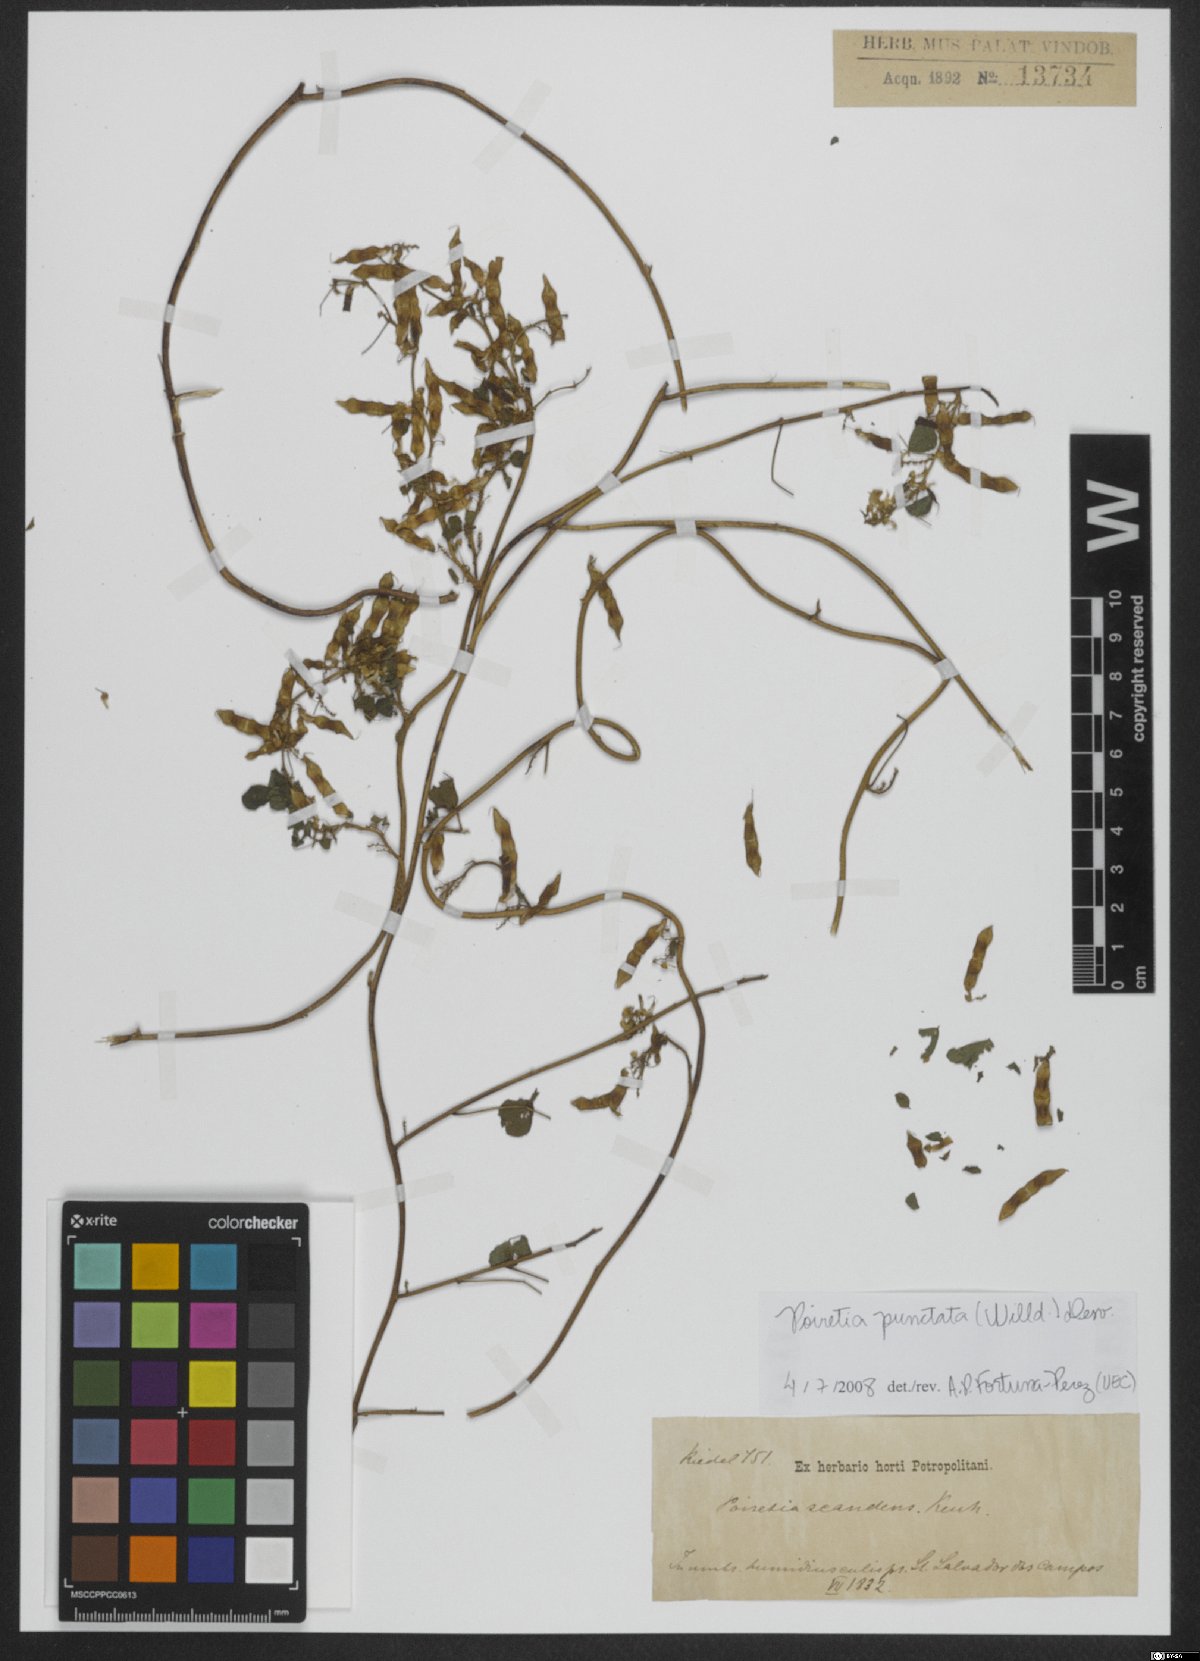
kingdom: Plantae
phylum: Tracheophyta
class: Magnoliopsida
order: Fabales
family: Fabaceae
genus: Poiretia
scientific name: Poiretia punctata
